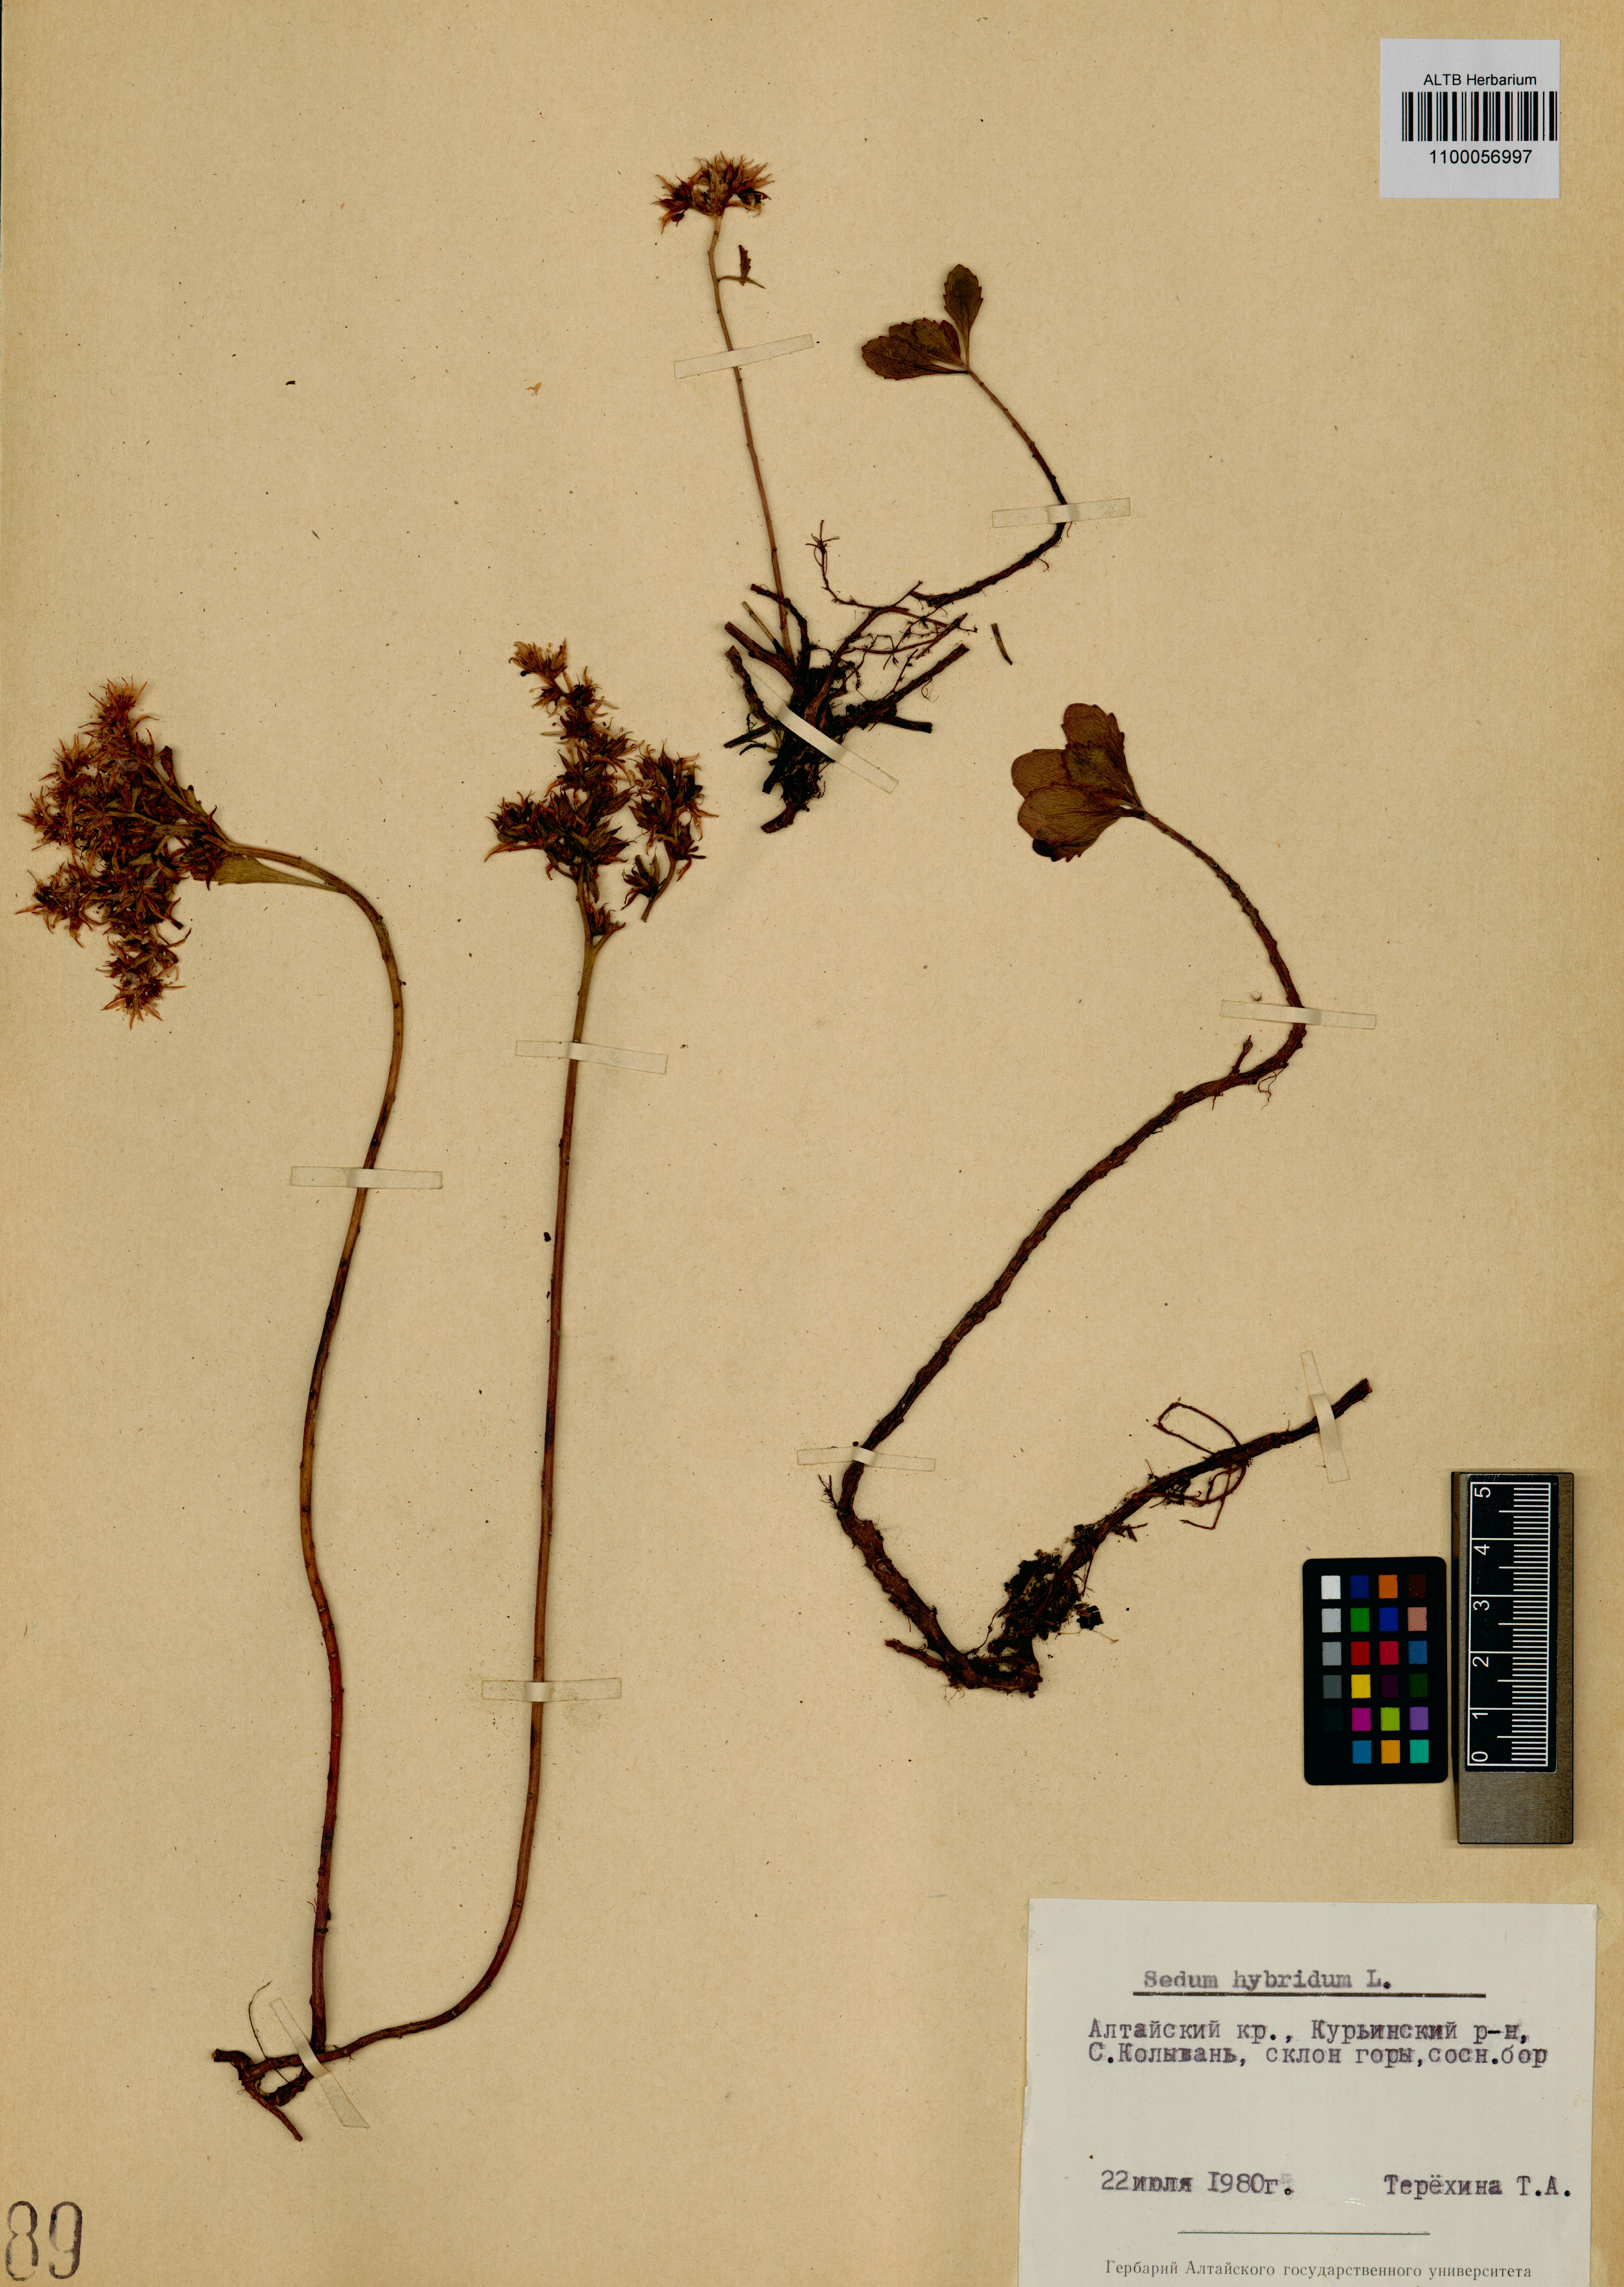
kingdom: Plantae
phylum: Tracheophyta
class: Magnoliopsida
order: Saxifragales
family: Crassulaceae
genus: Phedimus
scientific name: Phedimus hybridus
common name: Hybrid stonecrop
